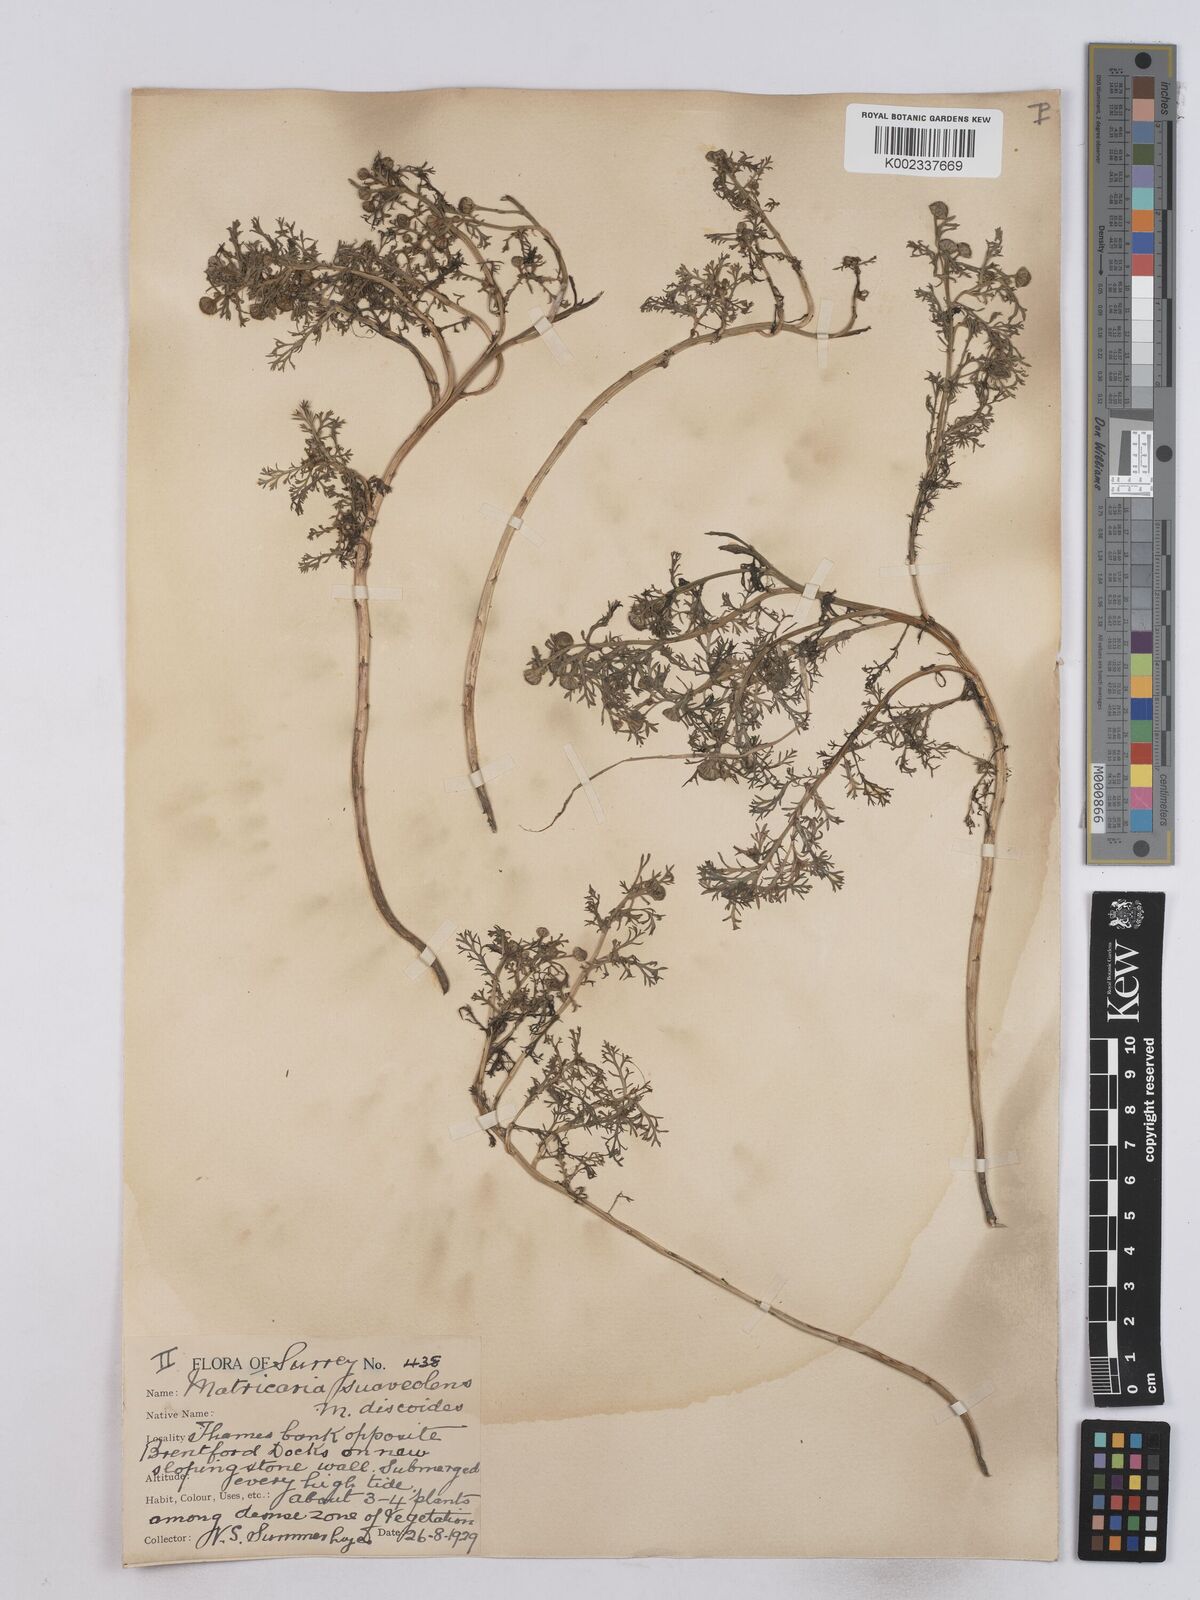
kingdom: Plantae
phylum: Tracheophyta
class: Magnoliopsida
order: Asterales
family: Asteraceae
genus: Matricaria
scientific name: Matricaria discoidea
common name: Disc mayweed
